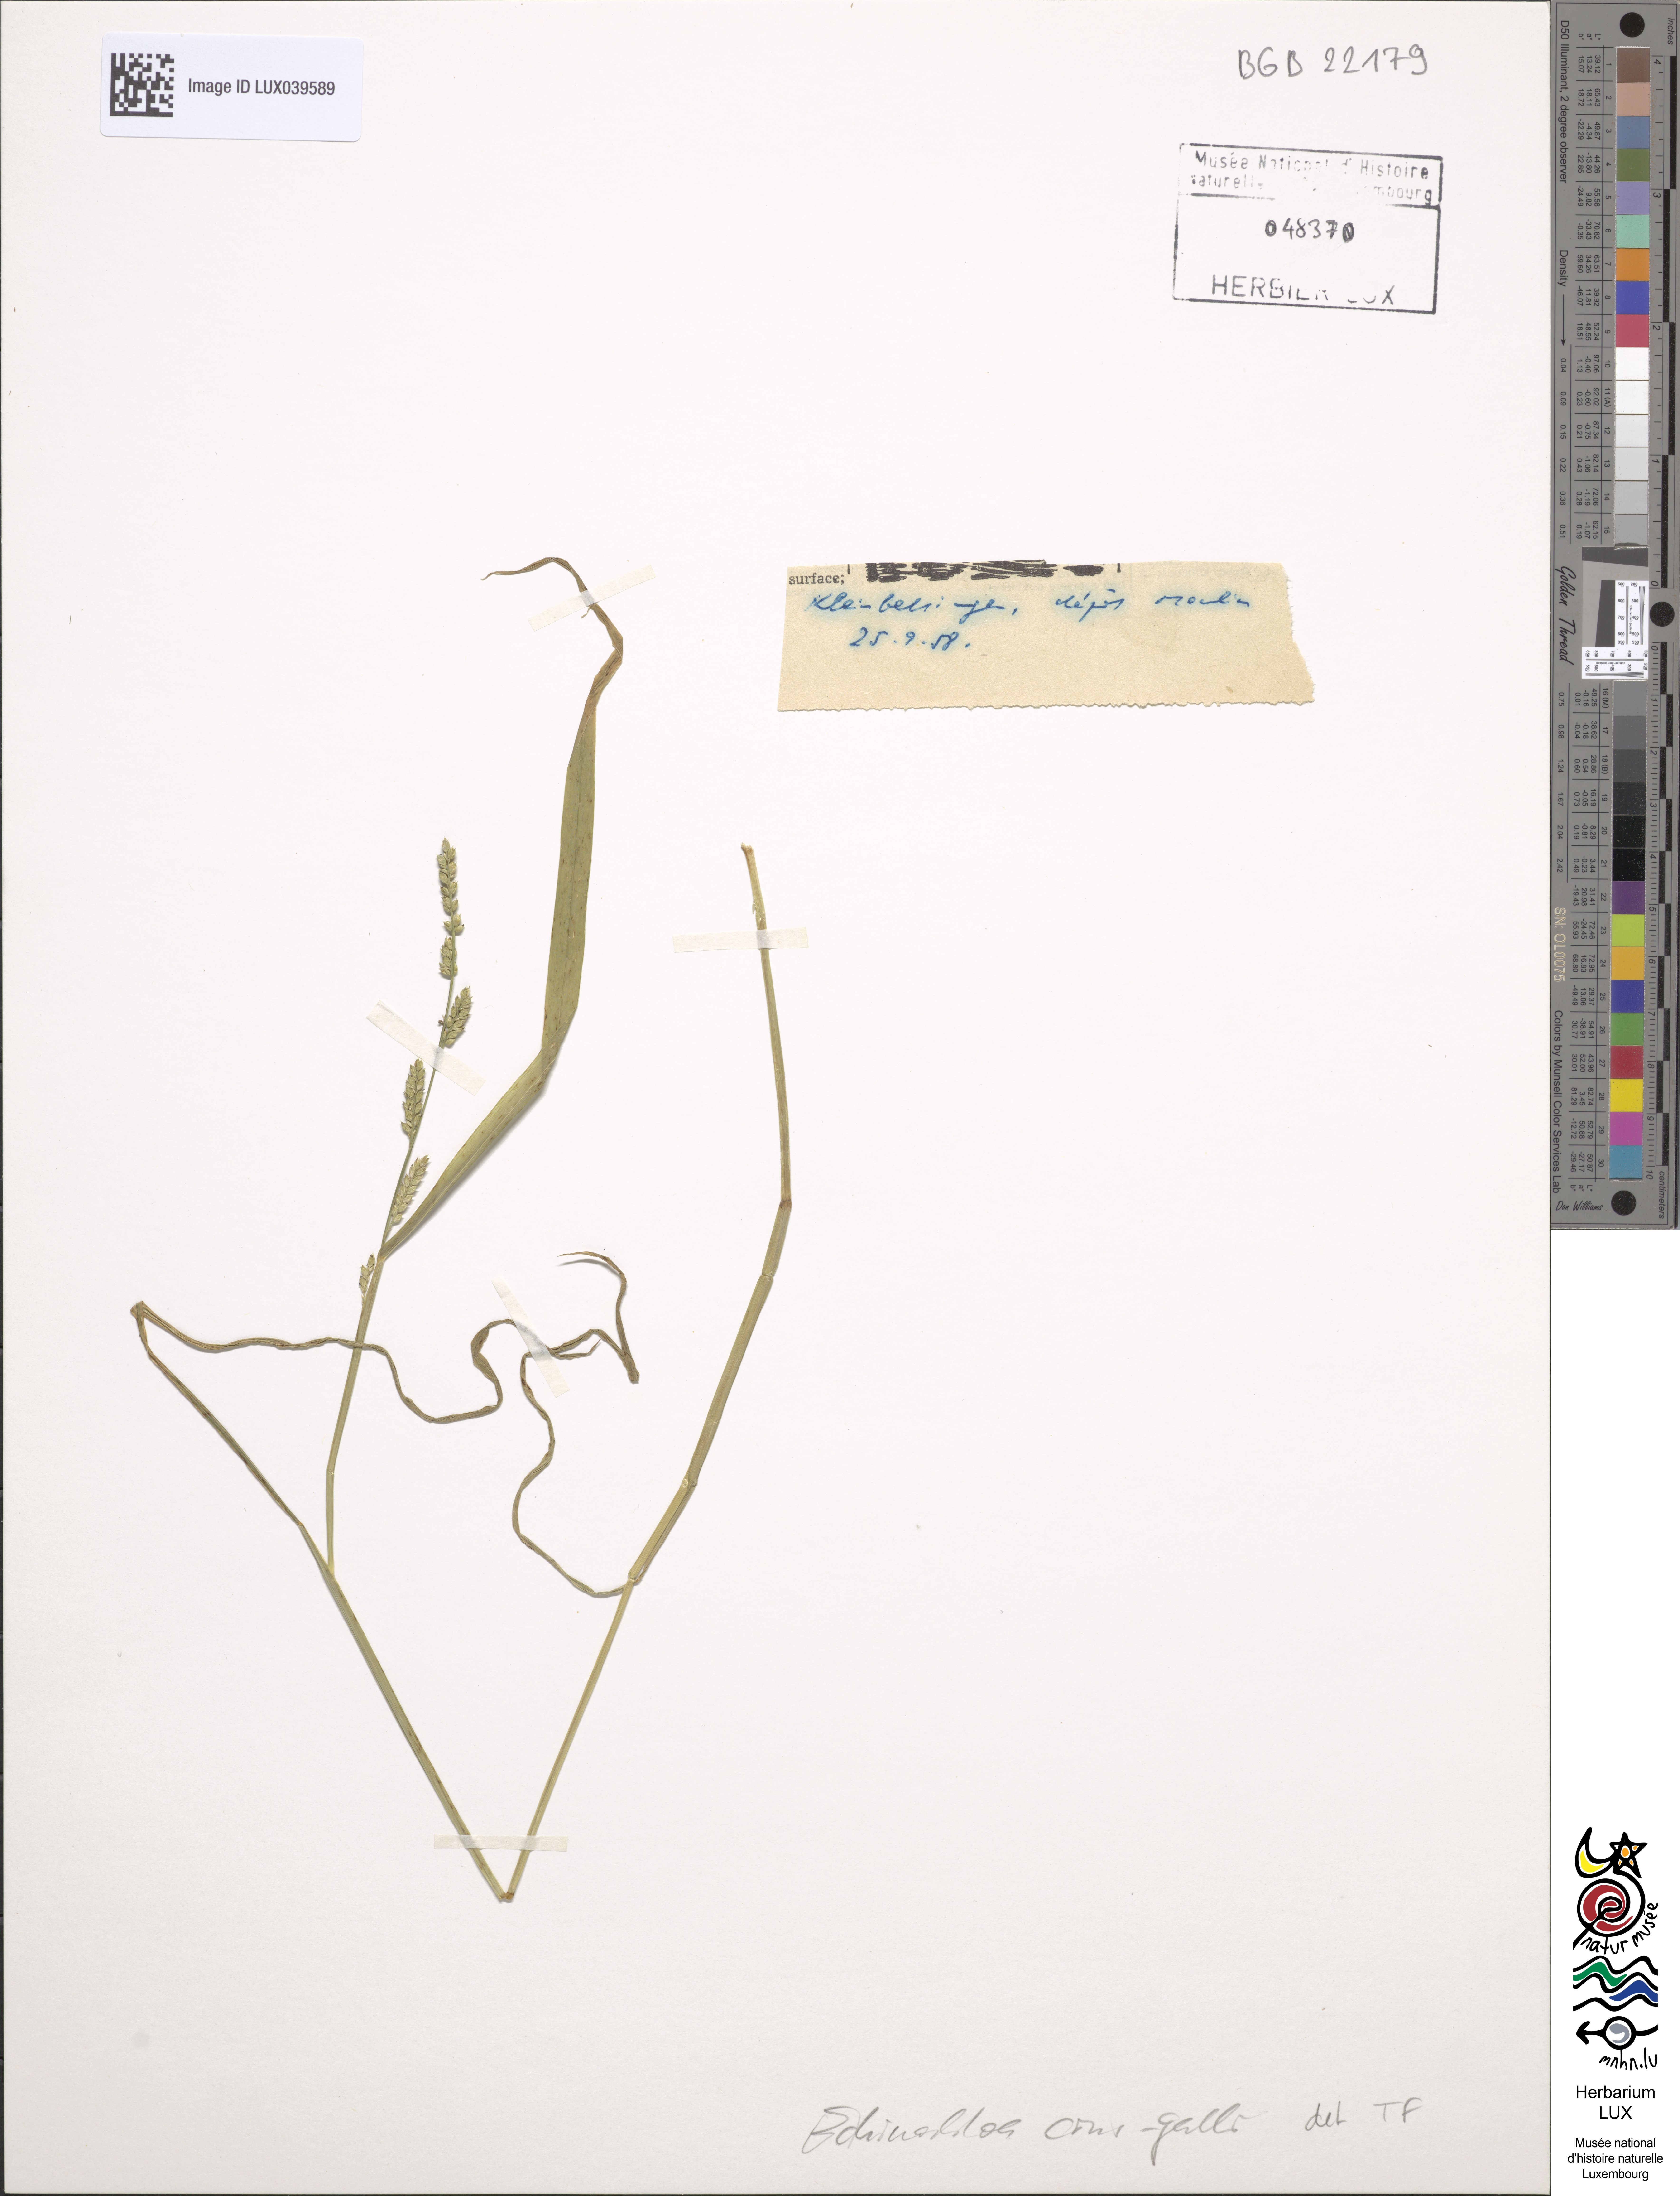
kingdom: Plantae
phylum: Tracheophyta
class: Liliopsida
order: Poales
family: Poaceae
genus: Echinochloa
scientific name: Echinochloa crus-galli
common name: Cockspur
